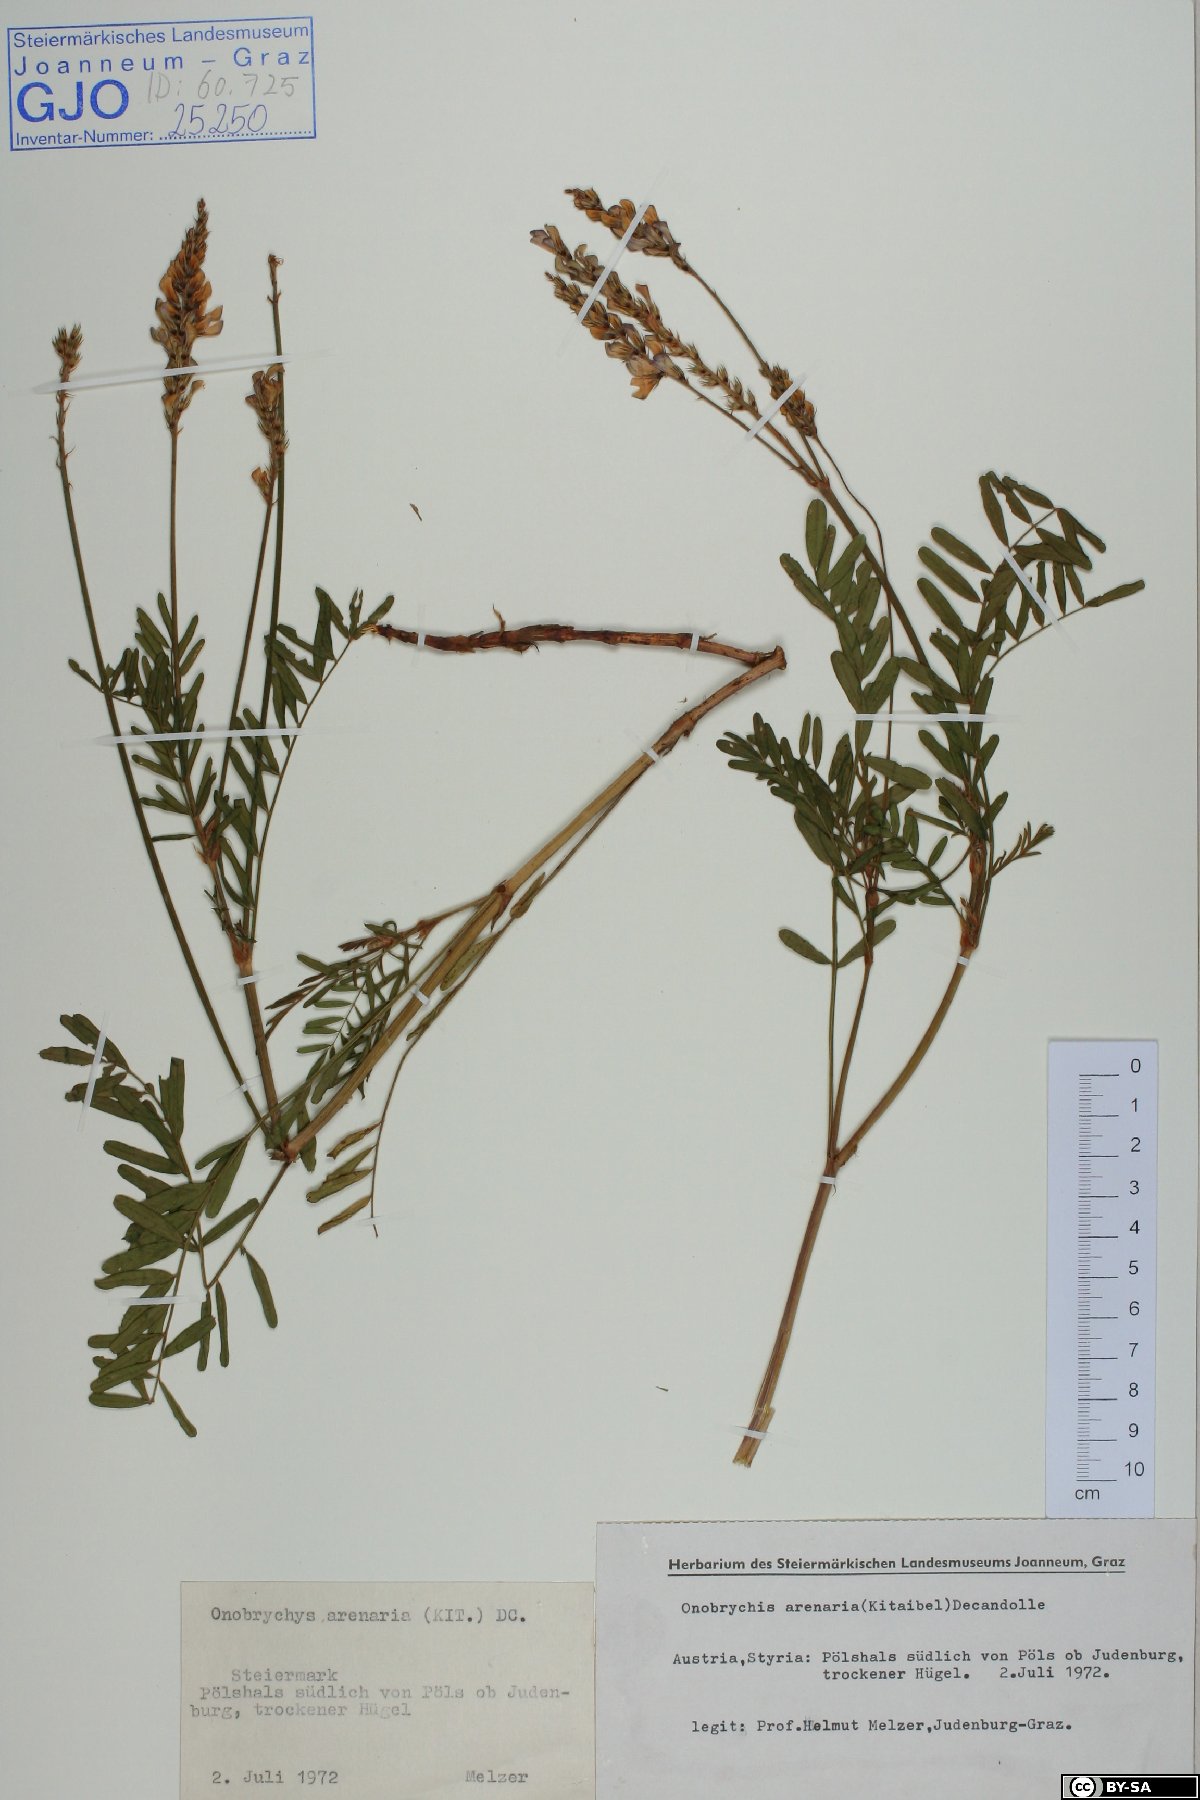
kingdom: Plantae
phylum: Tracheophyta
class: Magnoliopsida
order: Fabales
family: Fabaceae
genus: Onobrychis
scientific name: Onobrychis arenaria
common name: Sand esparcet
